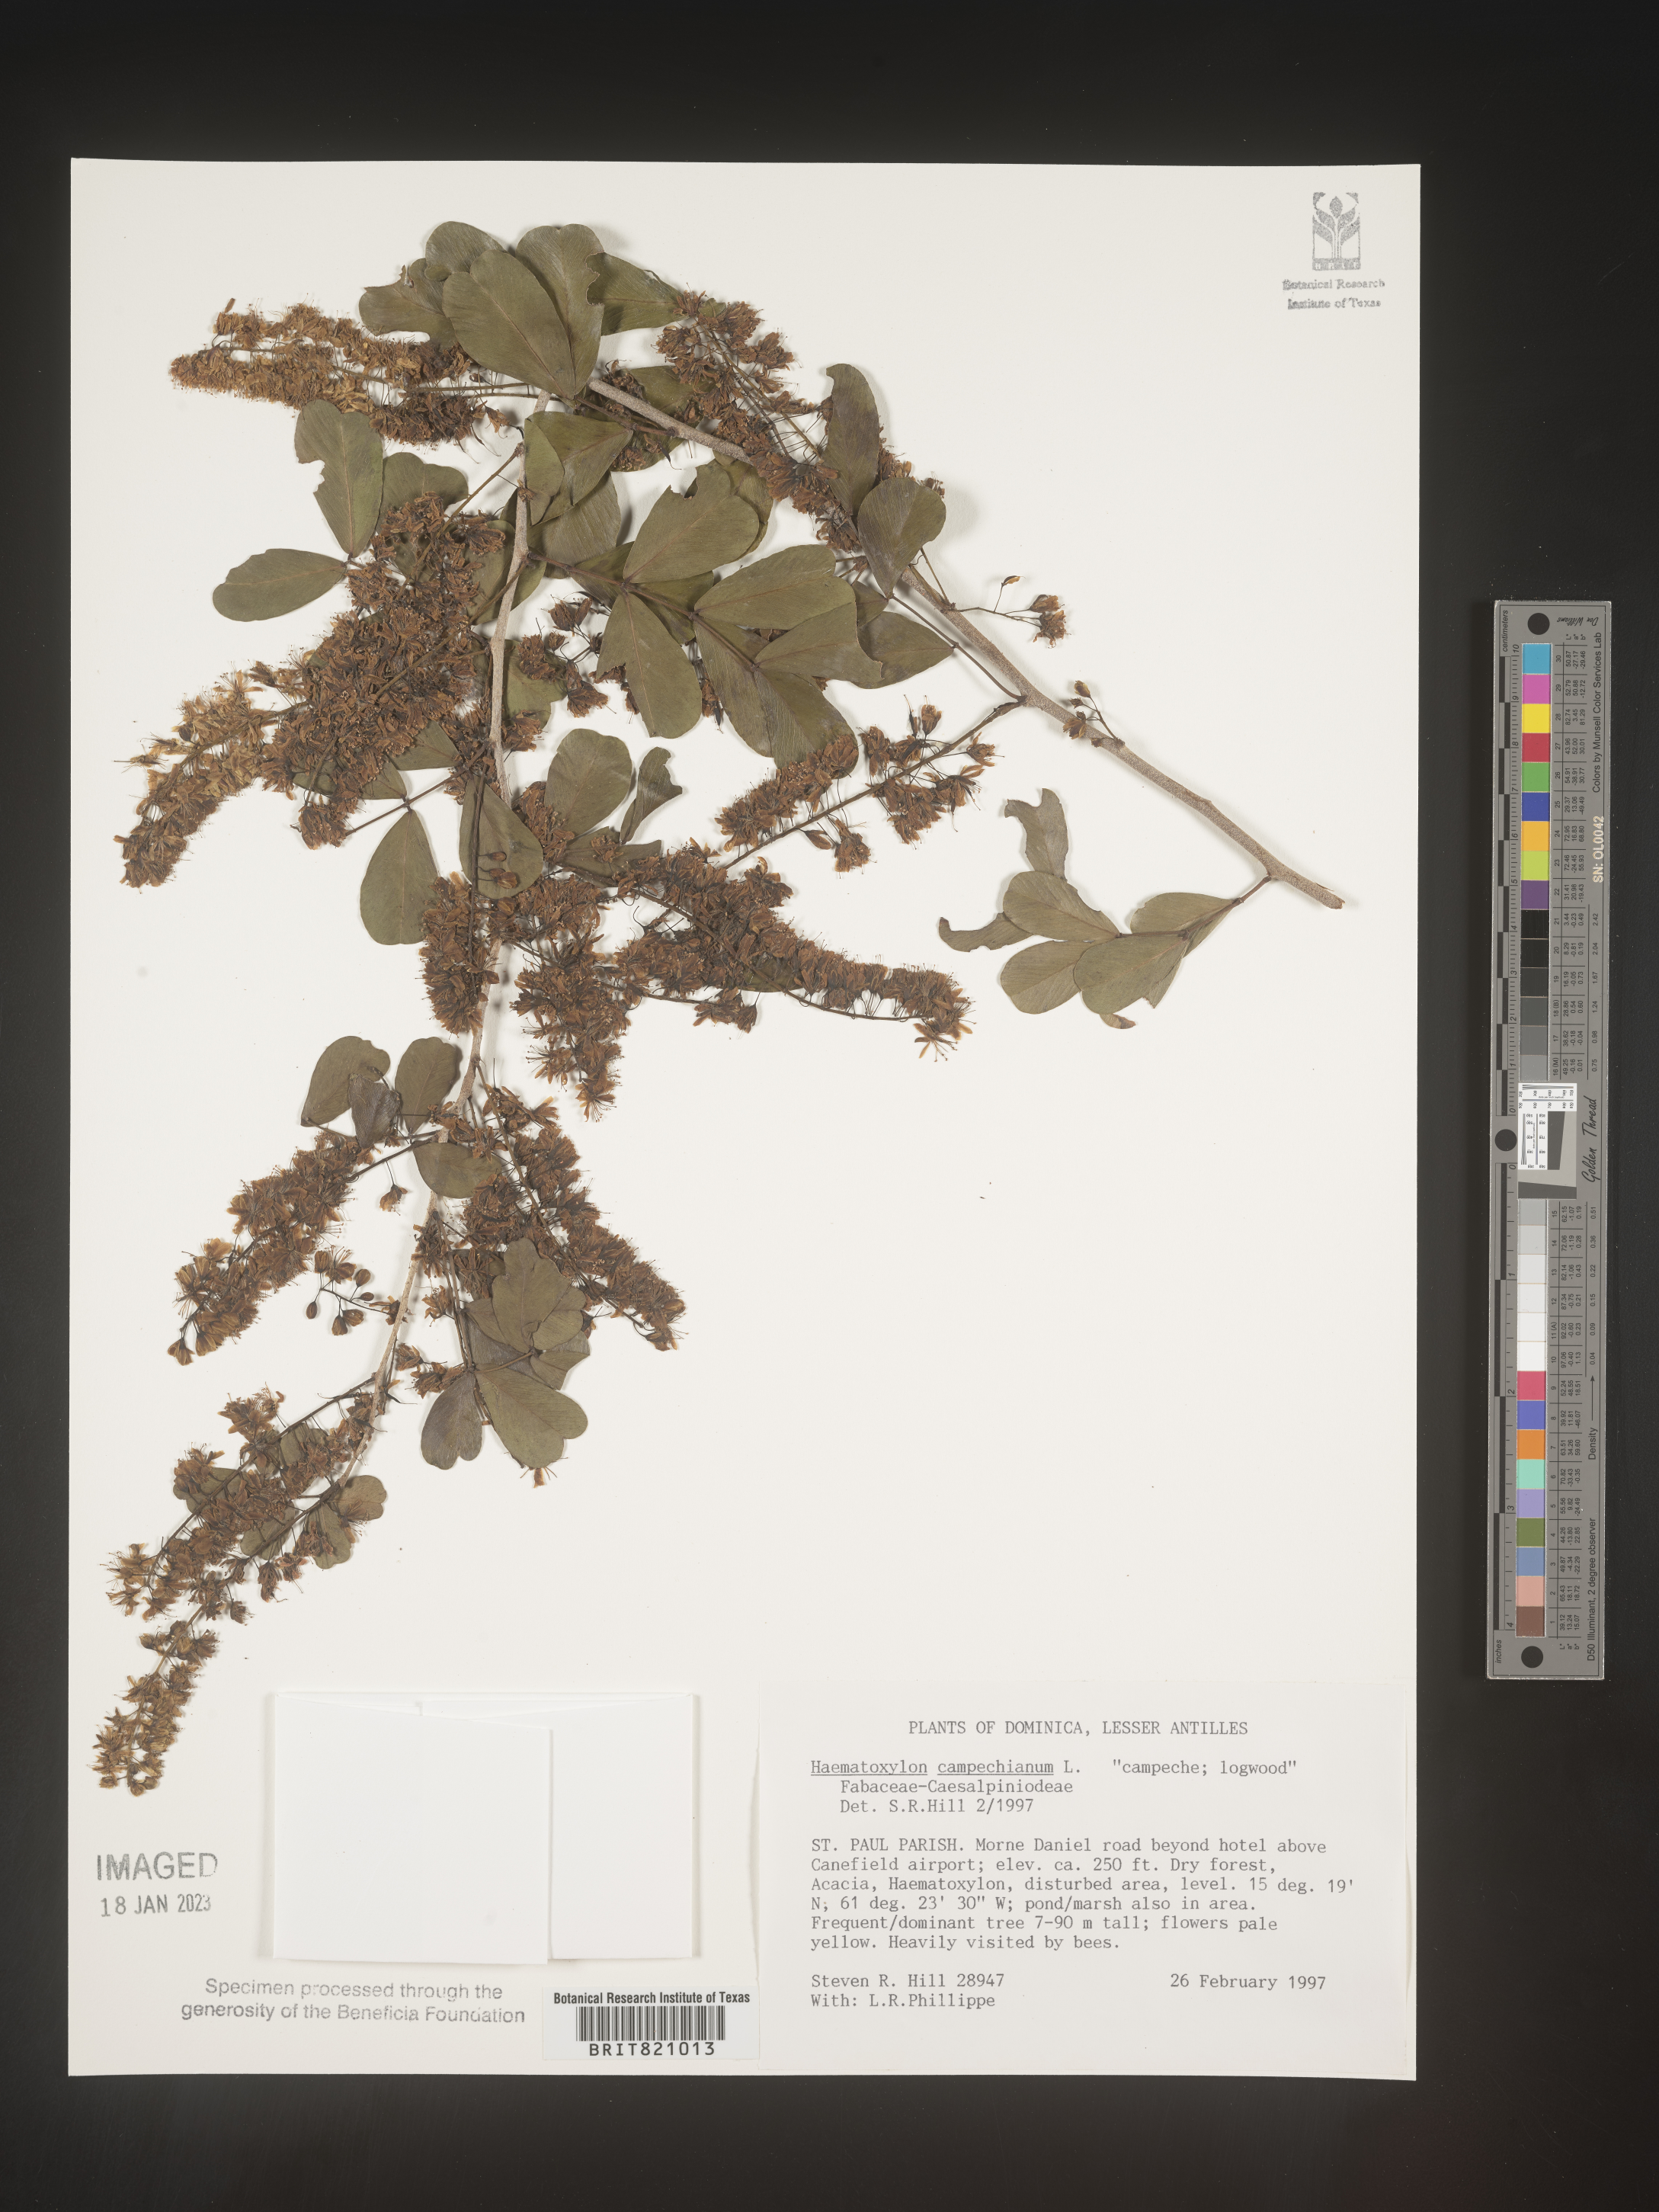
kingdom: Plantae
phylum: Tracheophyta
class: Magnoliopsida
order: Fabales
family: Fabaceae
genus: Haematoxylum
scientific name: Haematoxylum
